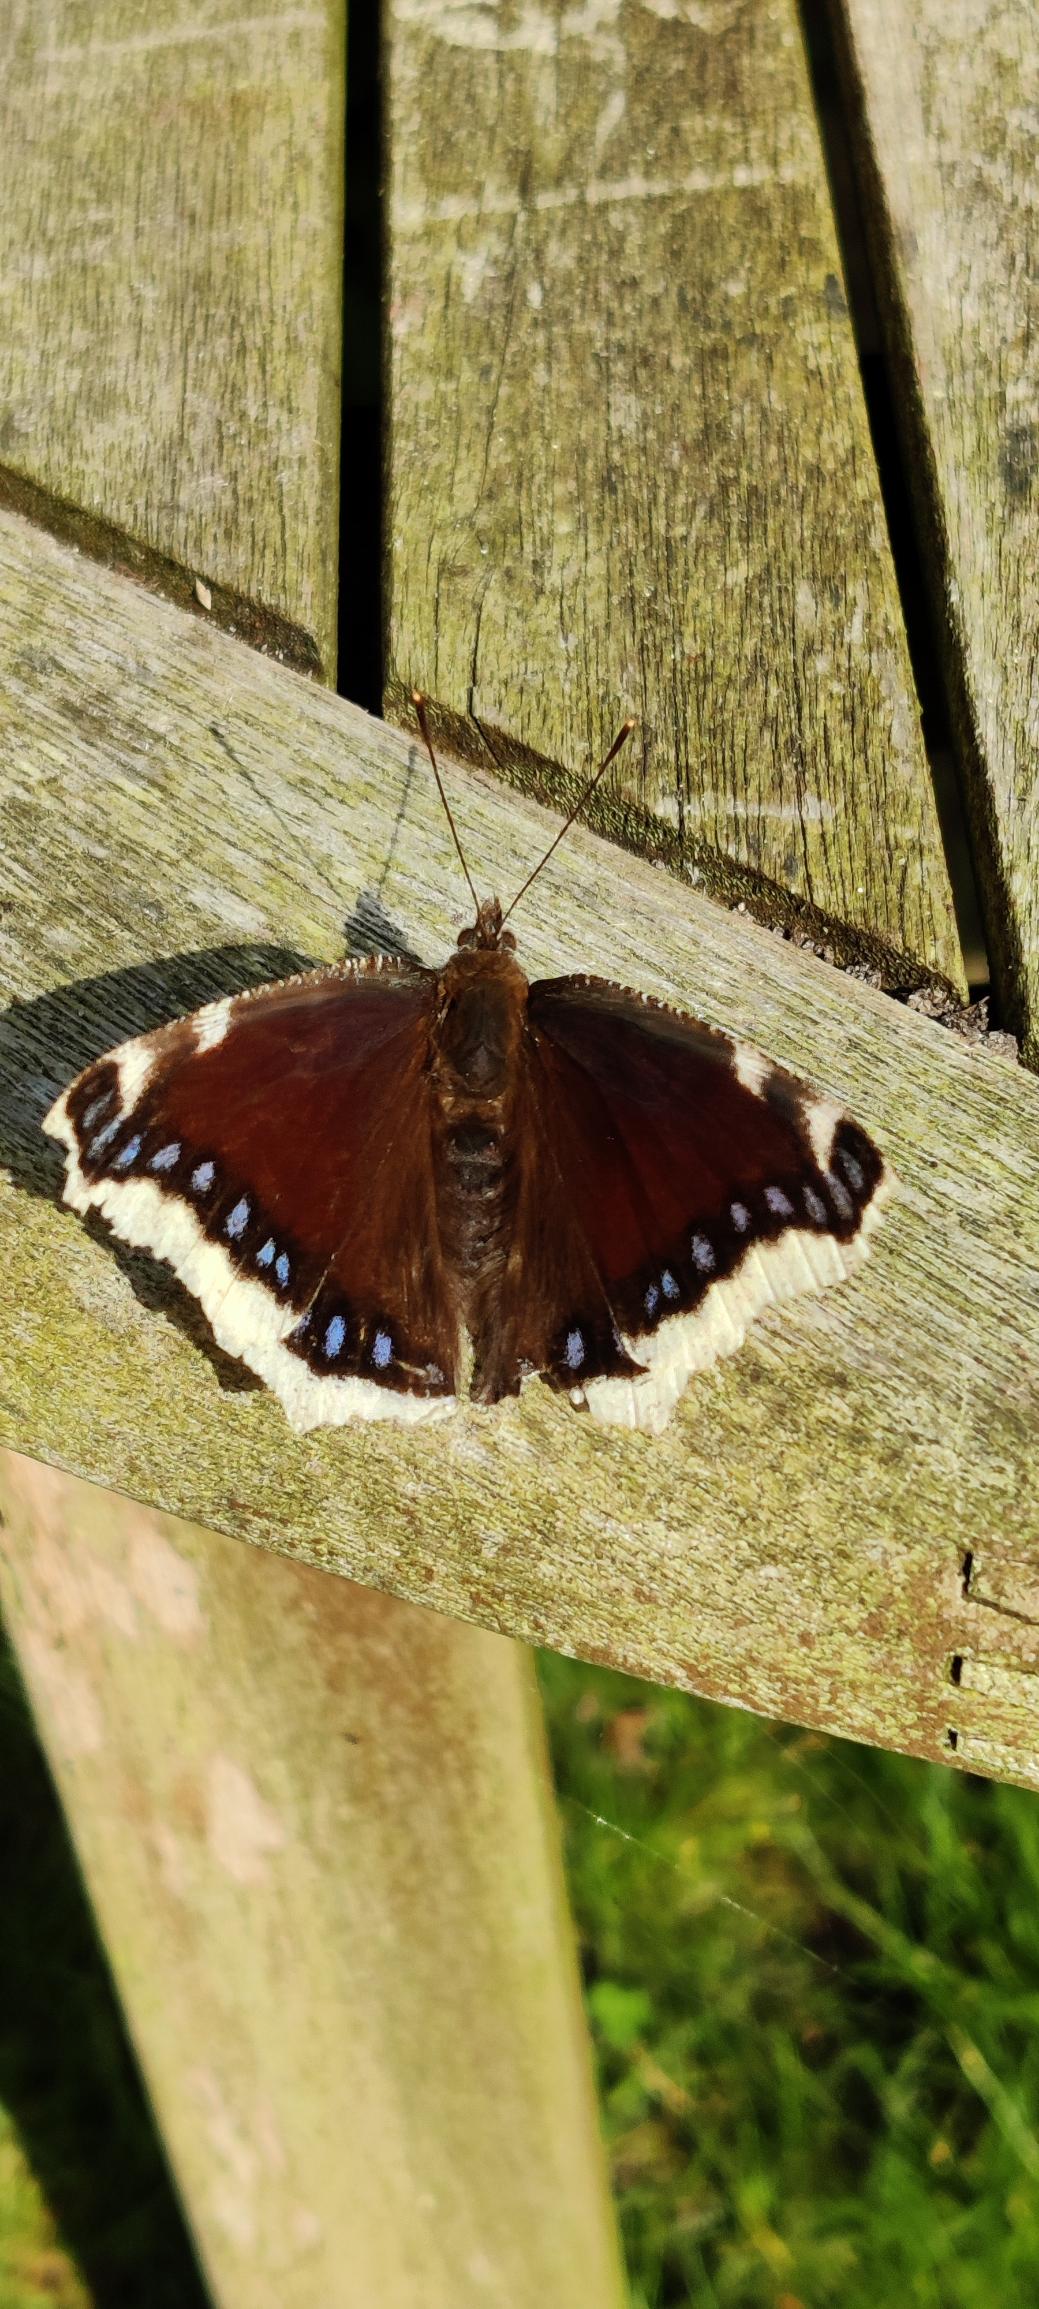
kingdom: Animalia
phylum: Arthropoda
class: Insecta
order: Lepidoptera
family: Nymphalidae
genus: Nymphalis
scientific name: Nymphalis antiopa
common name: Sørgekåbe
